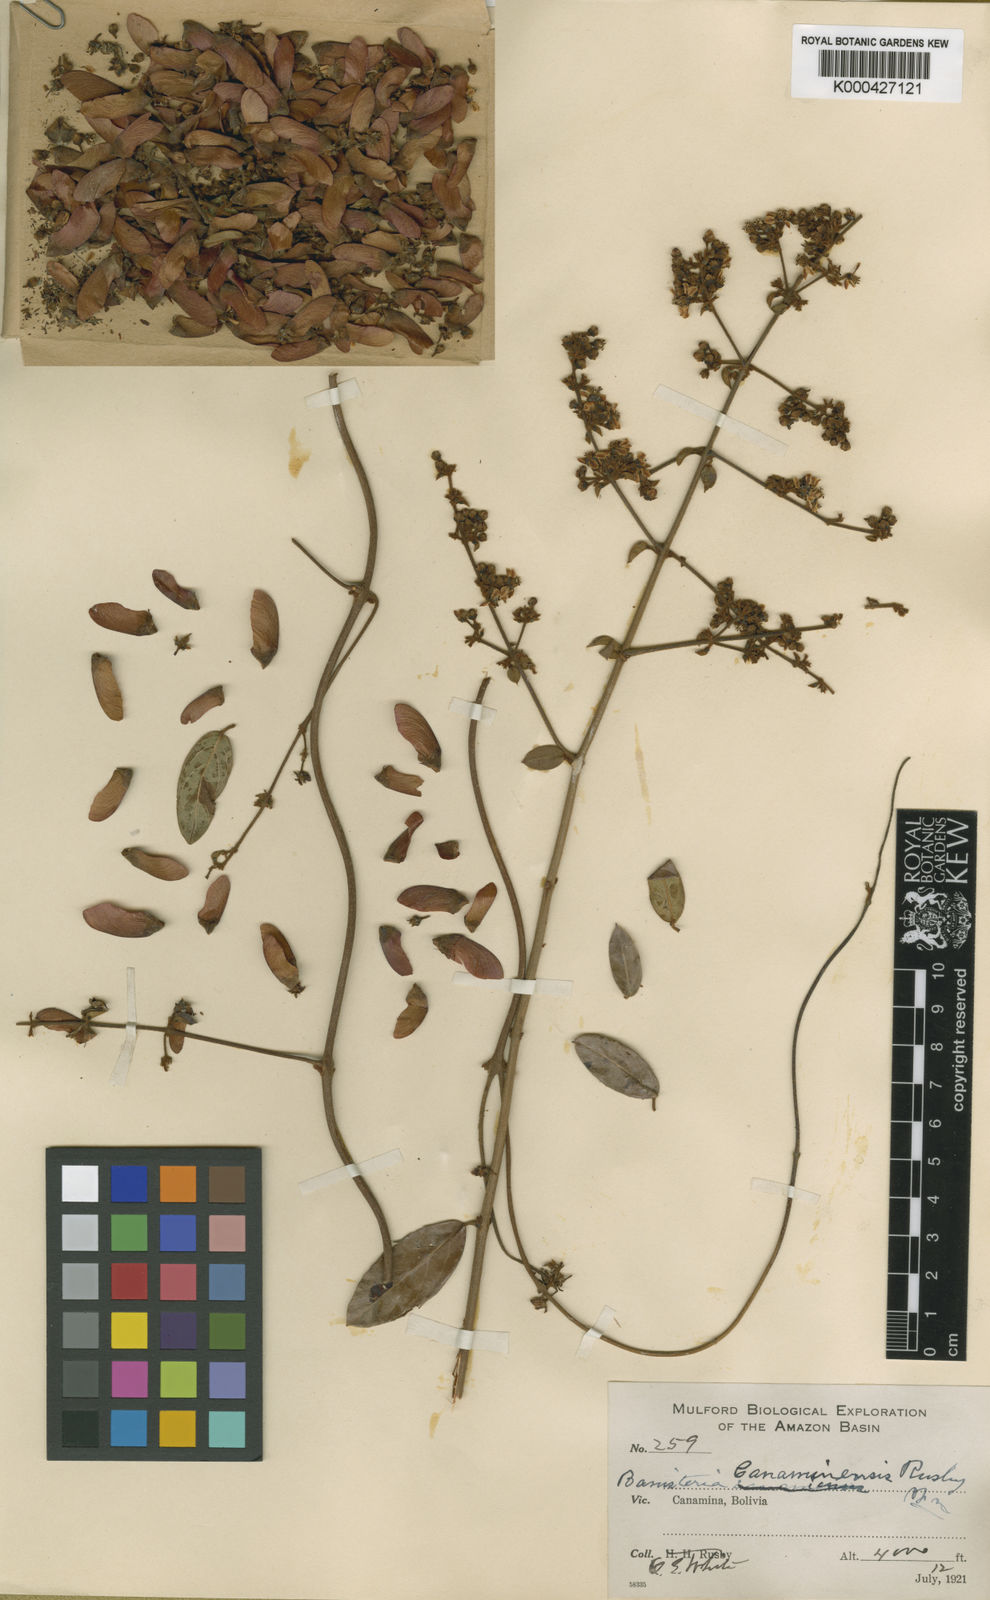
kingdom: Plantae
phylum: Tracheophyta
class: Magnoliopsida
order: Malpighiales
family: Malpighiaceae
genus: Heteropterys
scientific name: Heteropterys canaminensis
